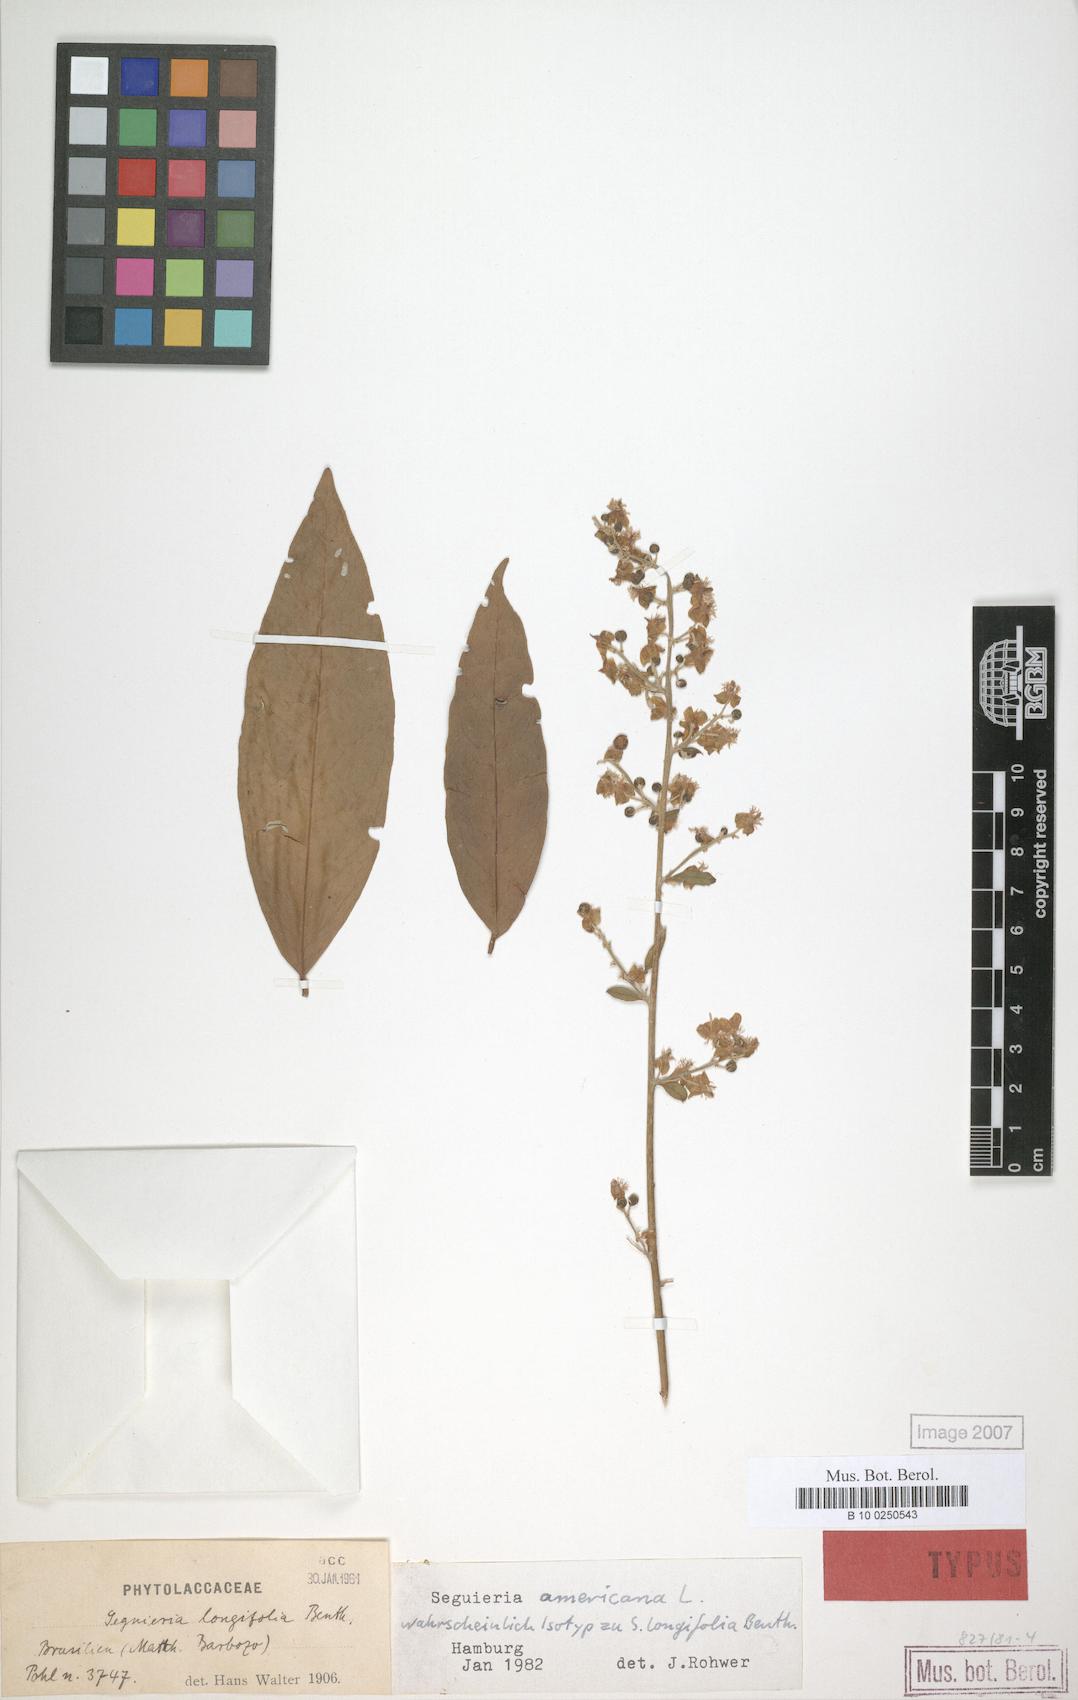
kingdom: Plantae
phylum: Tracheophyta
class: Magnoliopsida
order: Caryophyllales
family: Phytolaccaceae
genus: Seguieria
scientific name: Seguieria americana
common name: American seguieria
